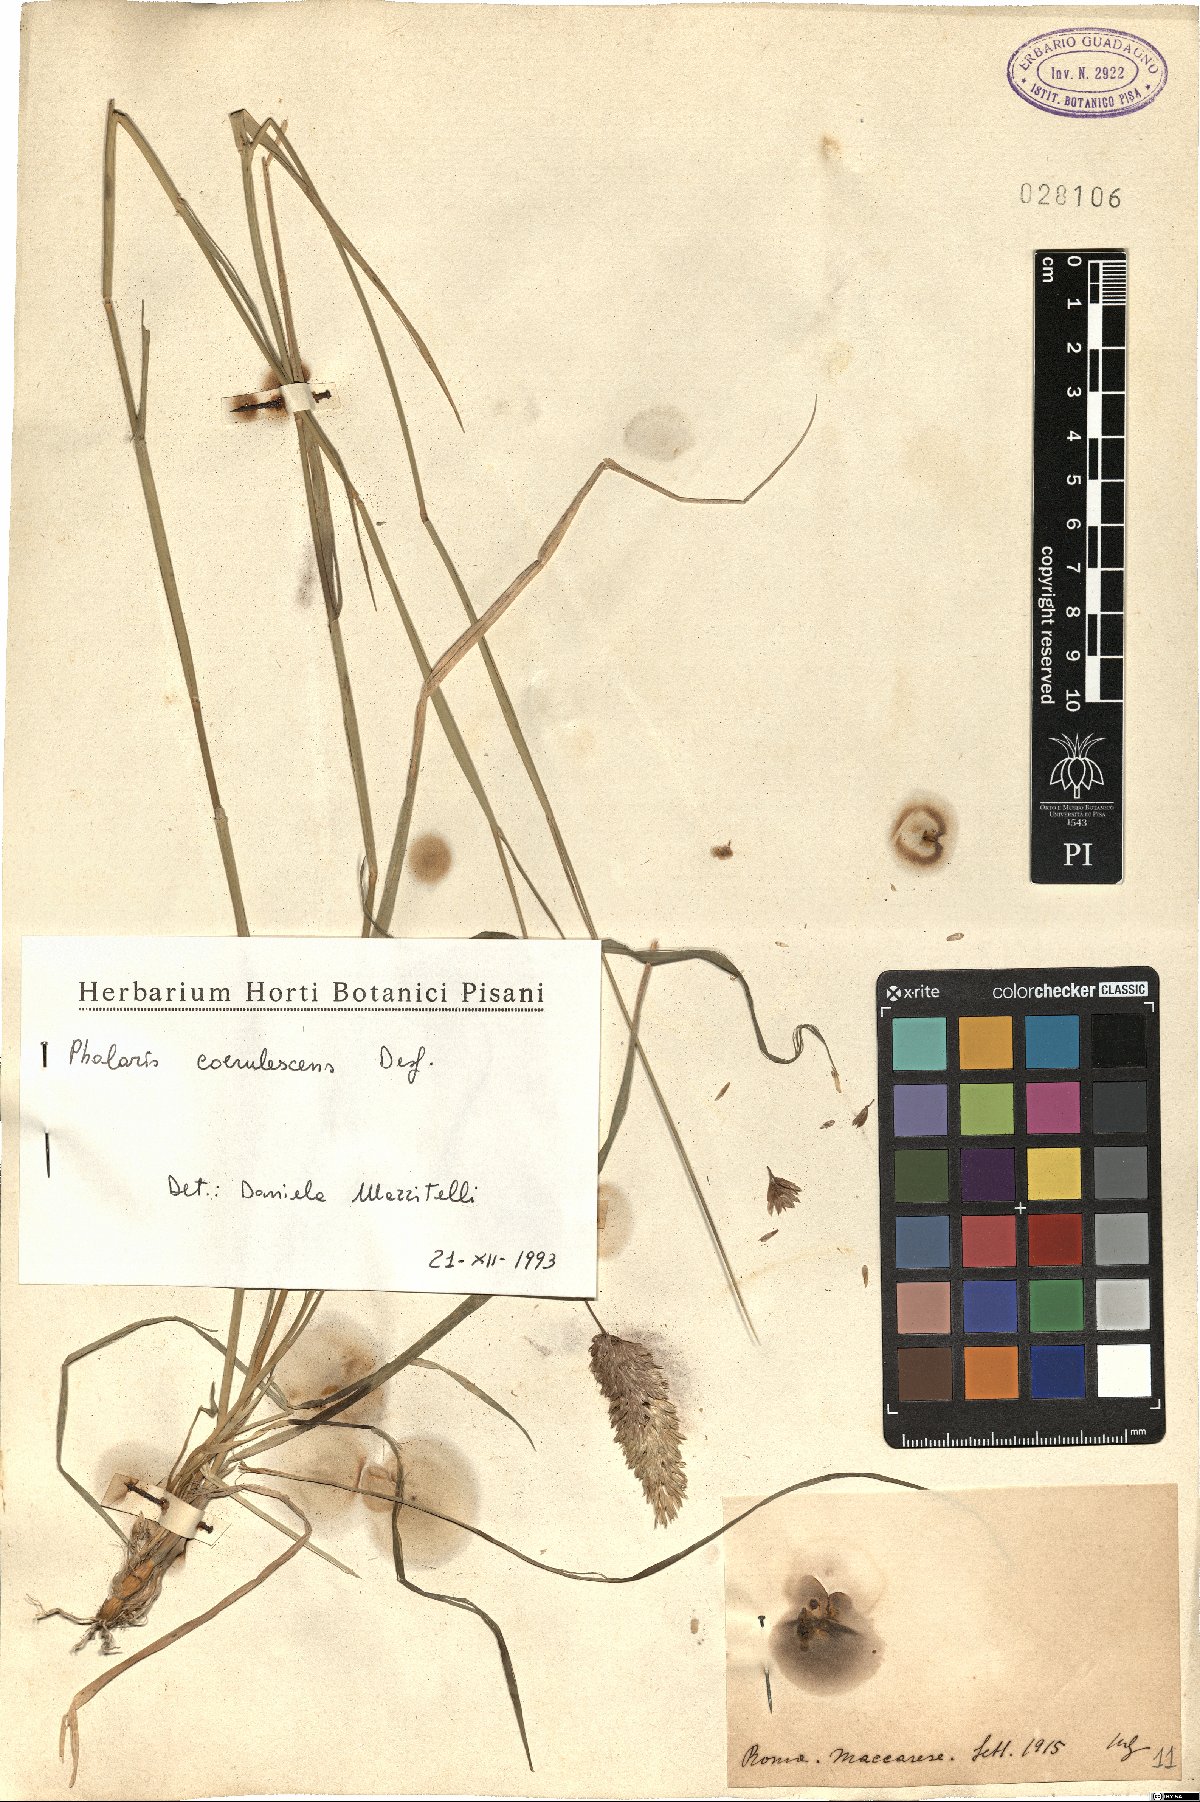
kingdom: Plantae
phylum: Tracheophyta
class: Liliopsida
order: Poales
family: Poaceae
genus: Phalaris
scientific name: Phalaris coerulescens
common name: Sunolgrass
